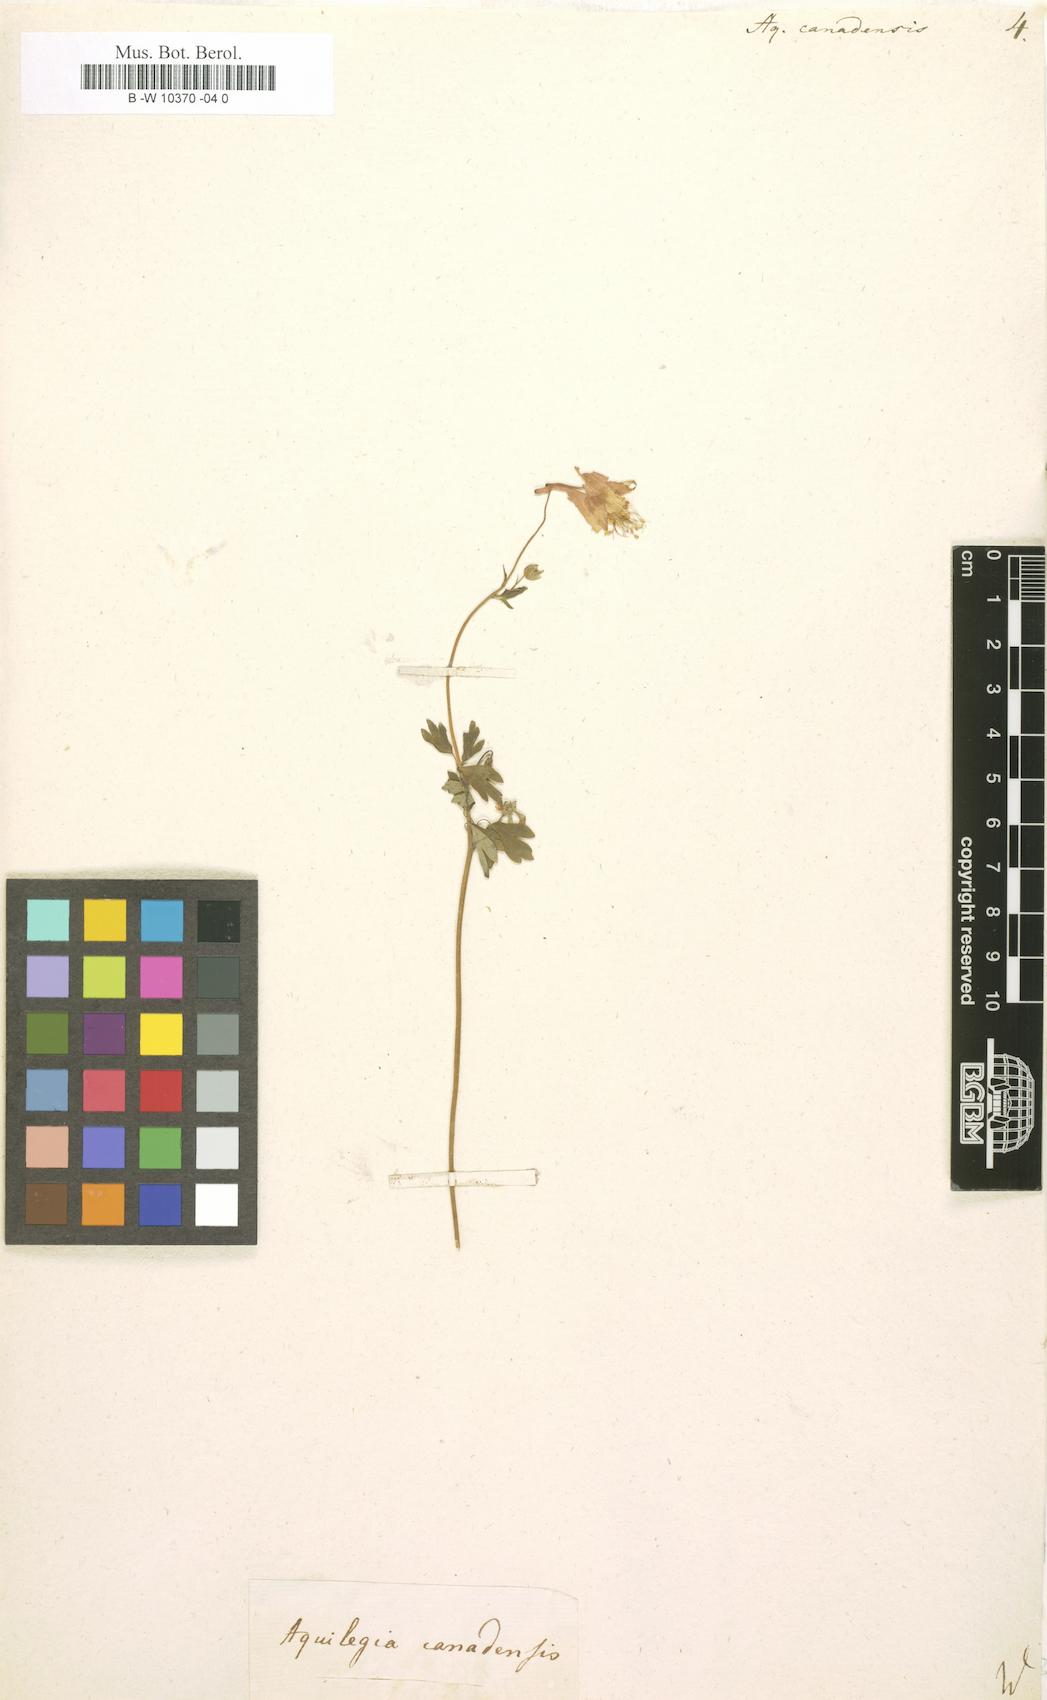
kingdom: Plantae
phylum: Tracheophyta
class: Magnoliopsida
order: Ranunculales
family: Ranunculaceae
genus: Aquilegia
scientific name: Aquilegia canadensis
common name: American columbine
